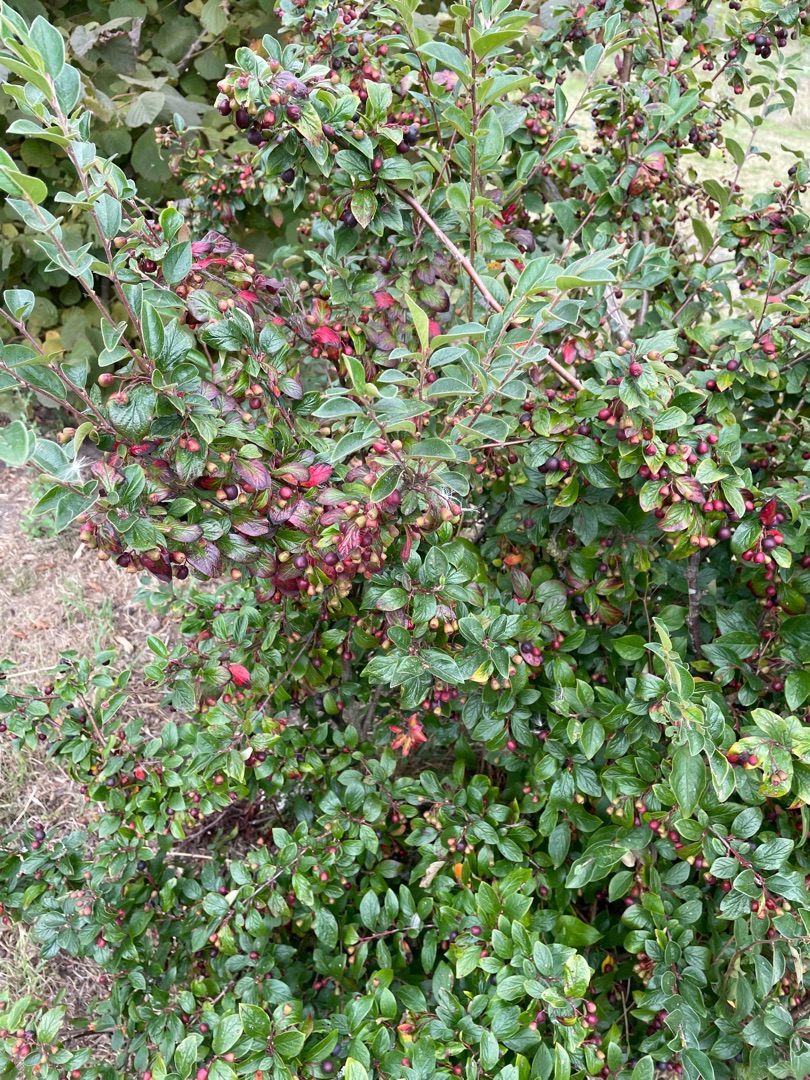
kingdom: Plantae
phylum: Tracheophyta
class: Magnoliopsida
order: Rosales
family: Rosaceae
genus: Cotoneaster
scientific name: Cotoneaster acutifolius
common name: Glans-dværgmispel
